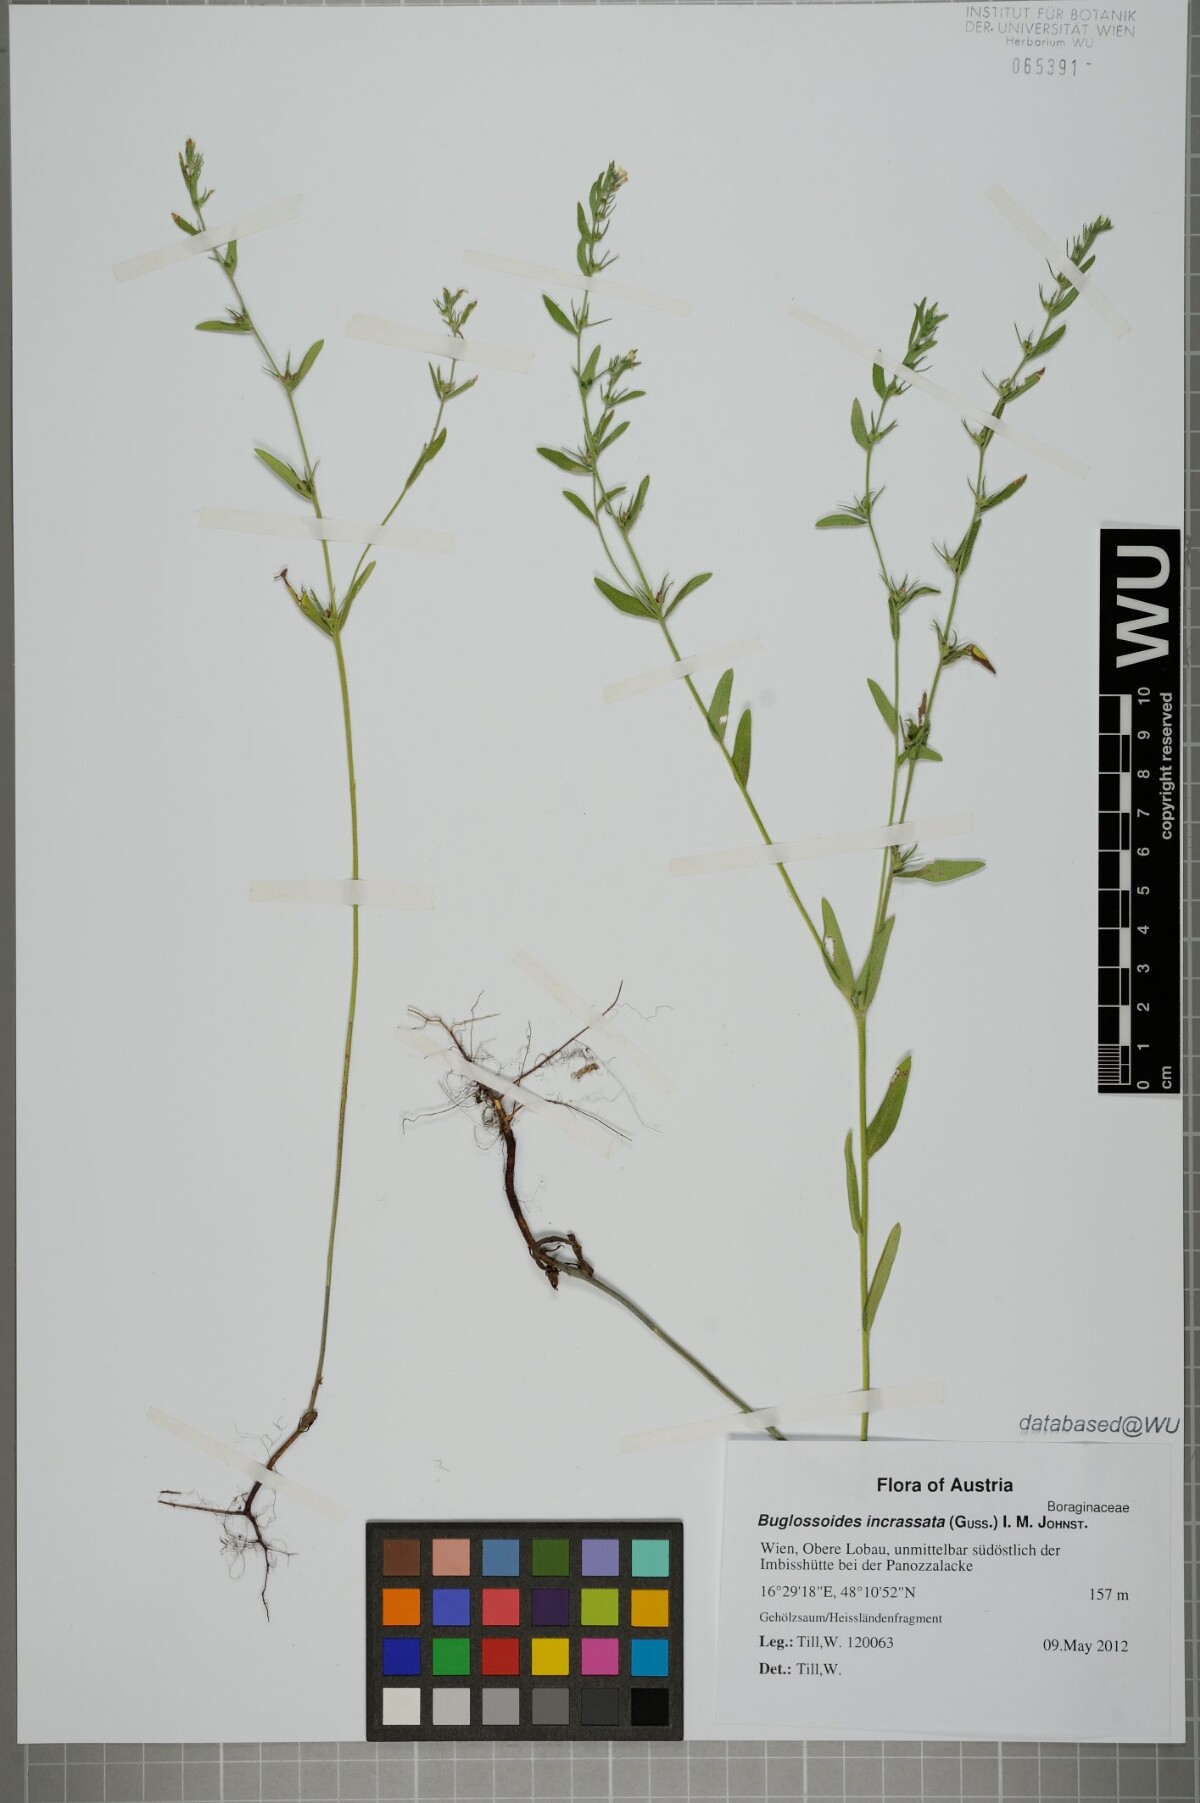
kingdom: Plantae
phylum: Tracheophyta
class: Magnoliopsida
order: Boraginales
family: Boraginaceae
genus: Buglossoides
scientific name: Buglossoides incrassata
